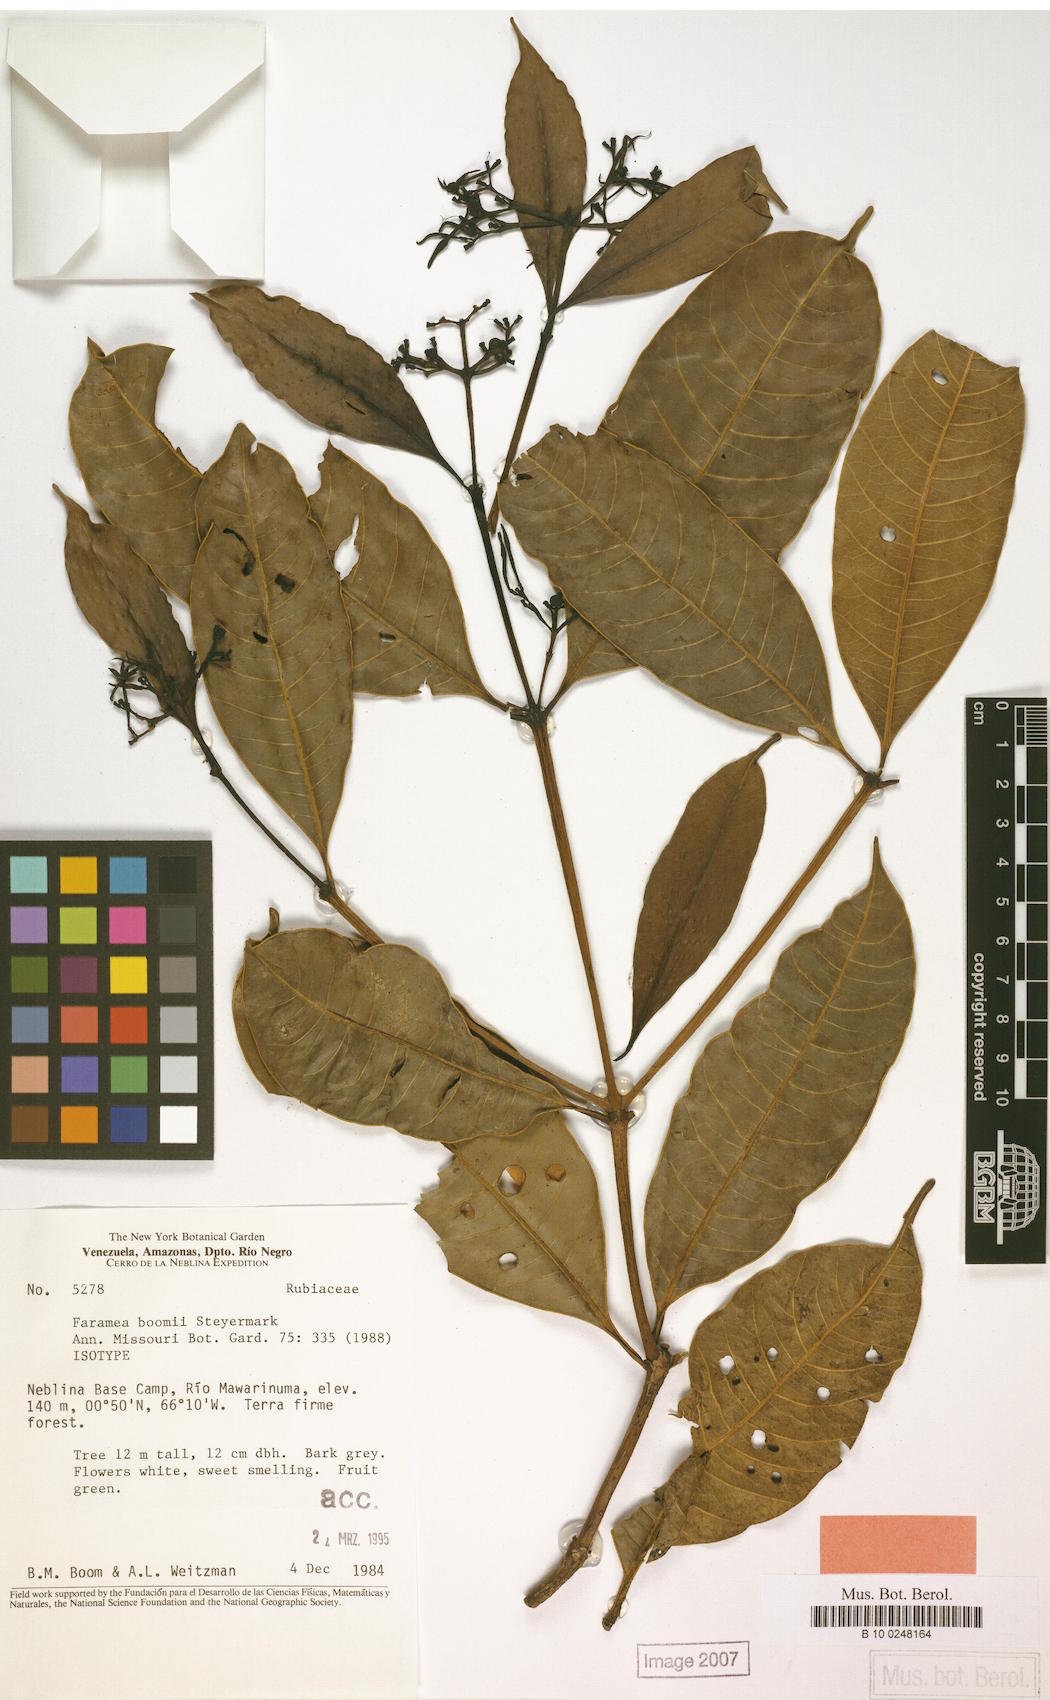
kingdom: Plantae
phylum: Tracheophyta
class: Magnoliopsida
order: Gentianales
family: Rubiaceae
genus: Faramea
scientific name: Faramea boomii
